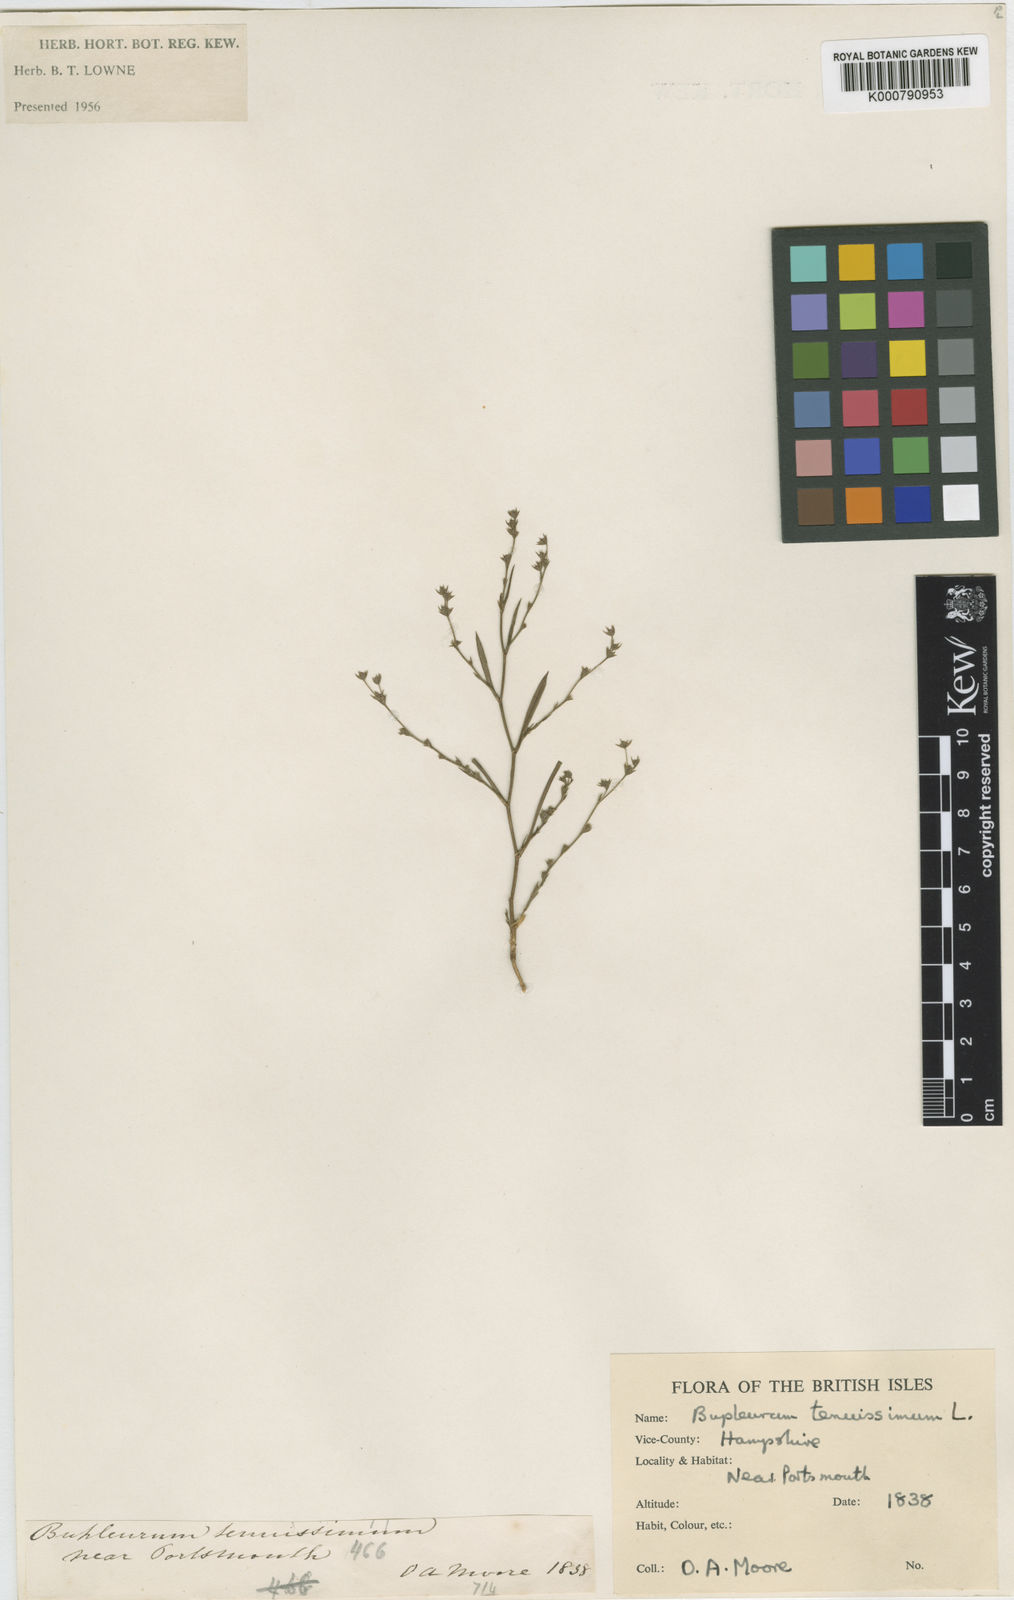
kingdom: Plantae
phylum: Tracheophyta
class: Magnoliopsida
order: Apiales
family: Apiaceae
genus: Bupleurum
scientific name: Bupleurum tenuissimum
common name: Slender hare's-ear
